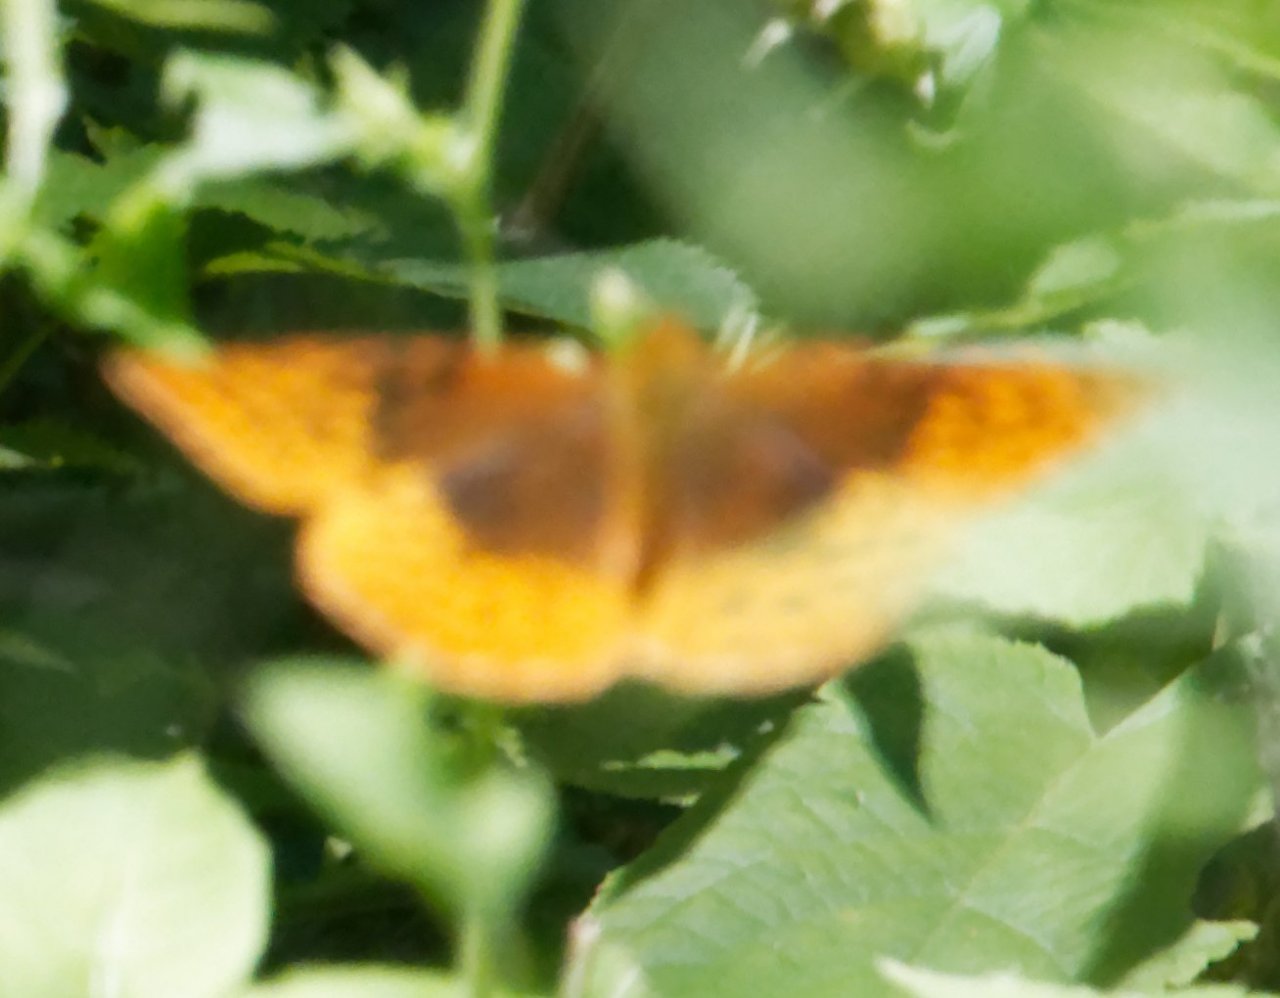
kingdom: Animalia
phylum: Arthropoda
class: Insecta
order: Lepidoptera
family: Nymphalidae
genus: Speyeria
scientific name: Speyeria cybele
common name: Great Spangled Fritillary
